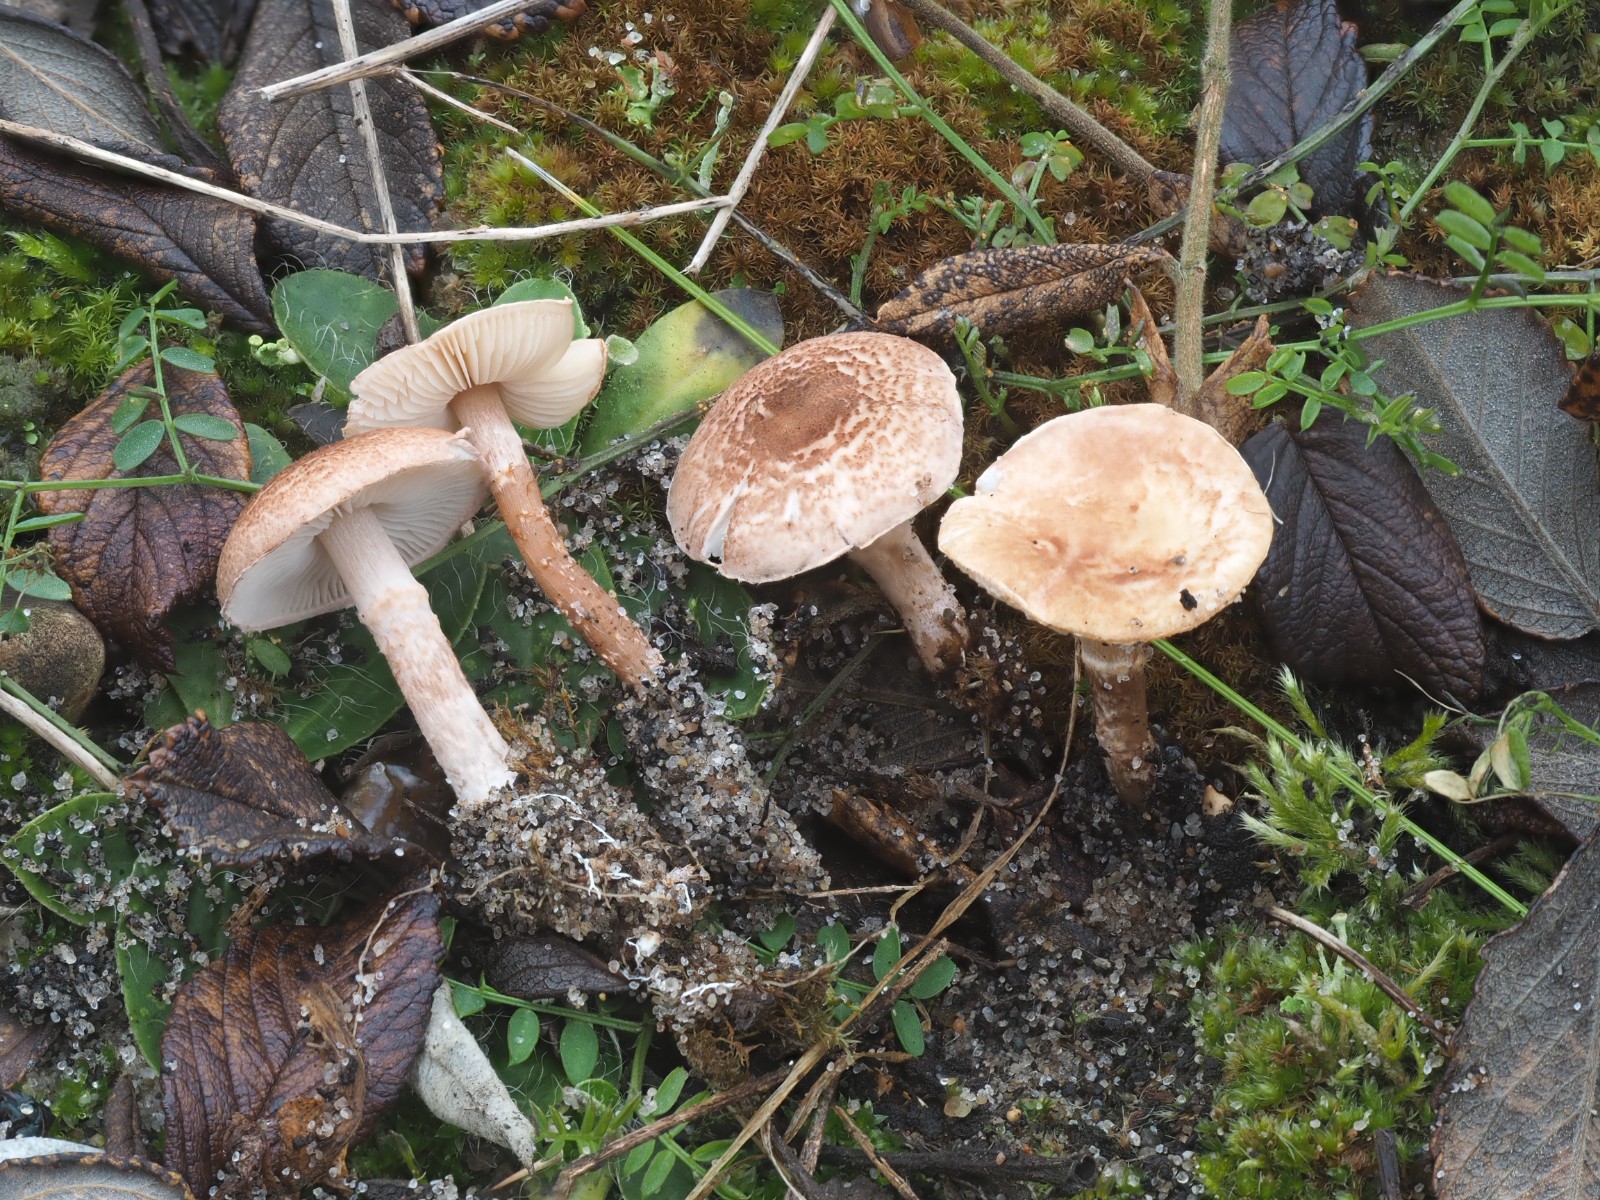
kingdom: Fungi
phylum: Basidiomycota
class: Agaricomycetes
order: Agaricales
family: Agaricaceae
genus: Lepiota
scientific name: Lepiota pseudolilacea
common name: gråbrun parasolhat
